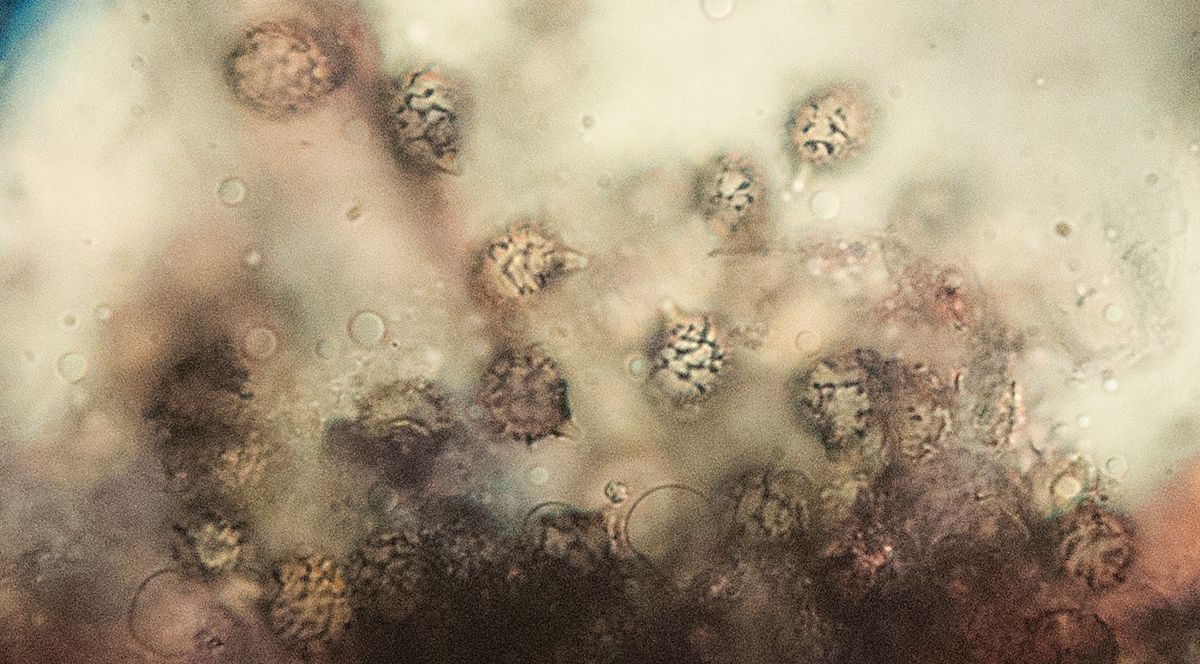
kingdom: Fungi
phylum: Basidiomycota
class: Agaricomycetes
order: Russulales
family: Russulaceae
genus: Russula
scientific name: Russula romellii
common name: romells skørhat
